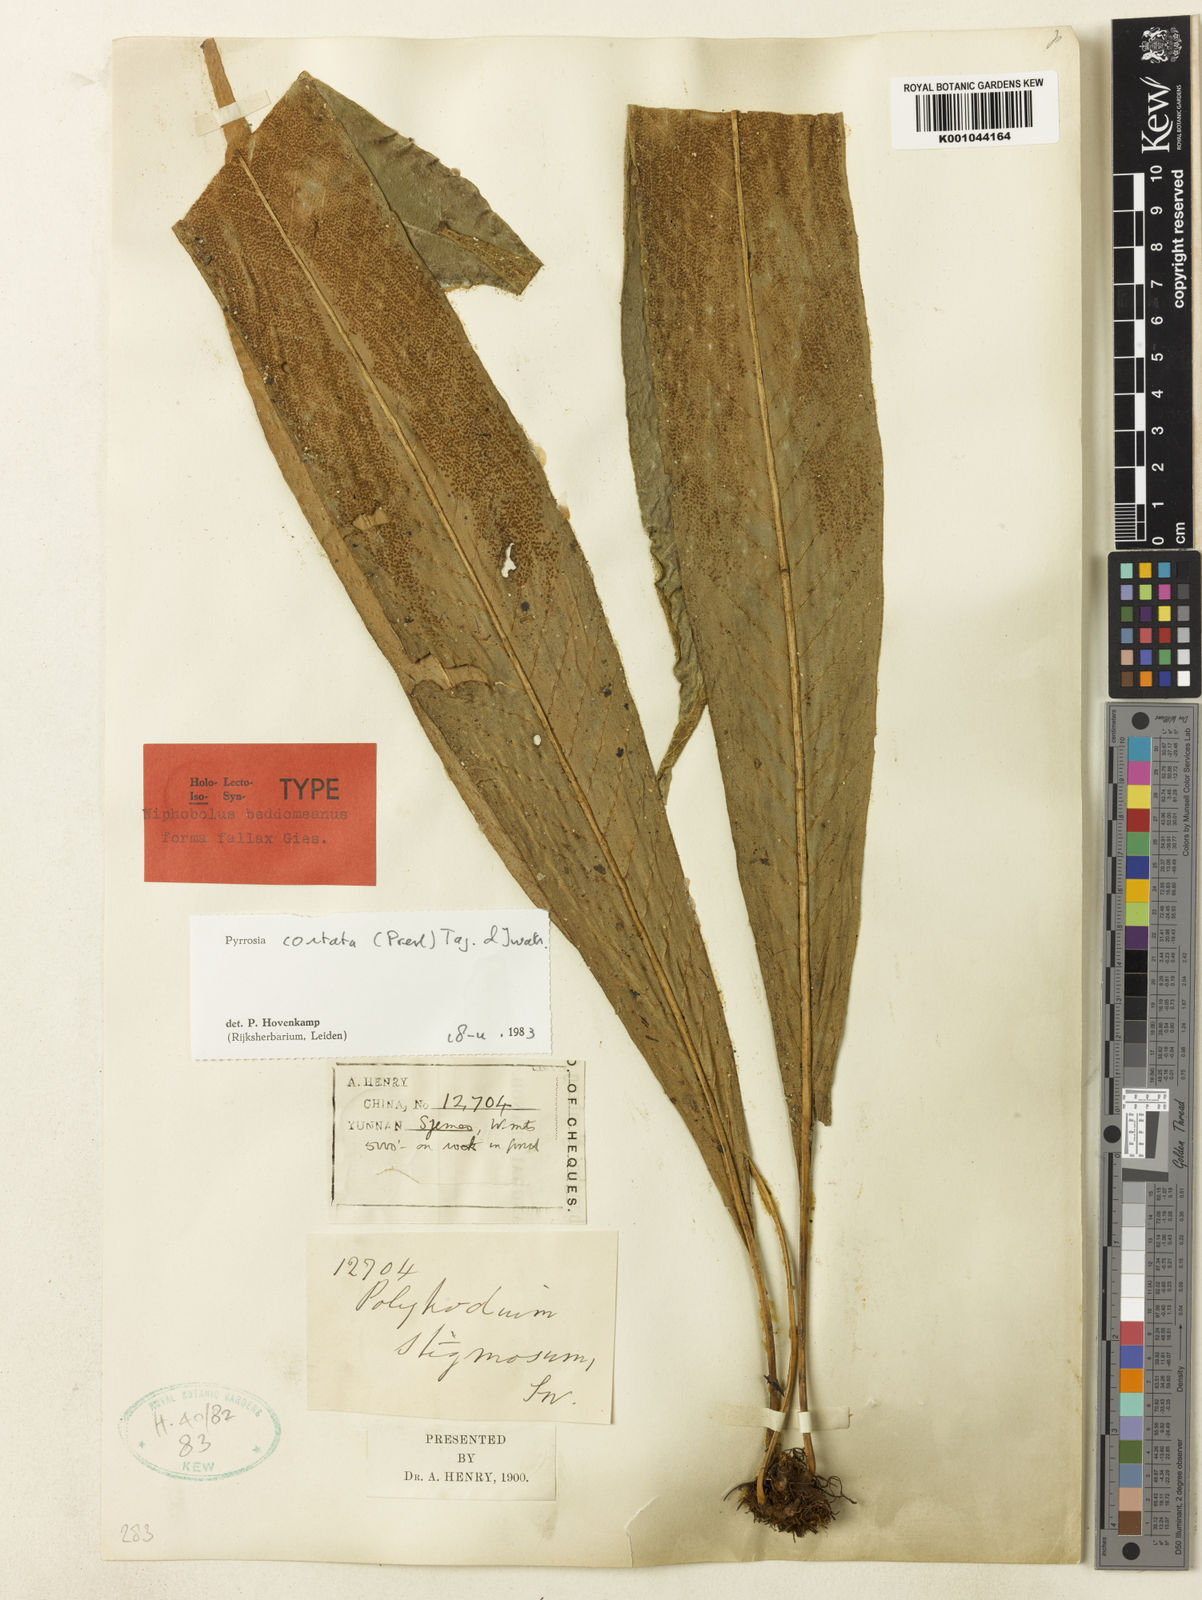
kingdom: Plantae
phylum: Tracheophyta
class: Polypodiopsida
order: Polypodiales
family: Polypodiaceae
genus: Pyrrosia
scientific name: Pyrrosia costata
